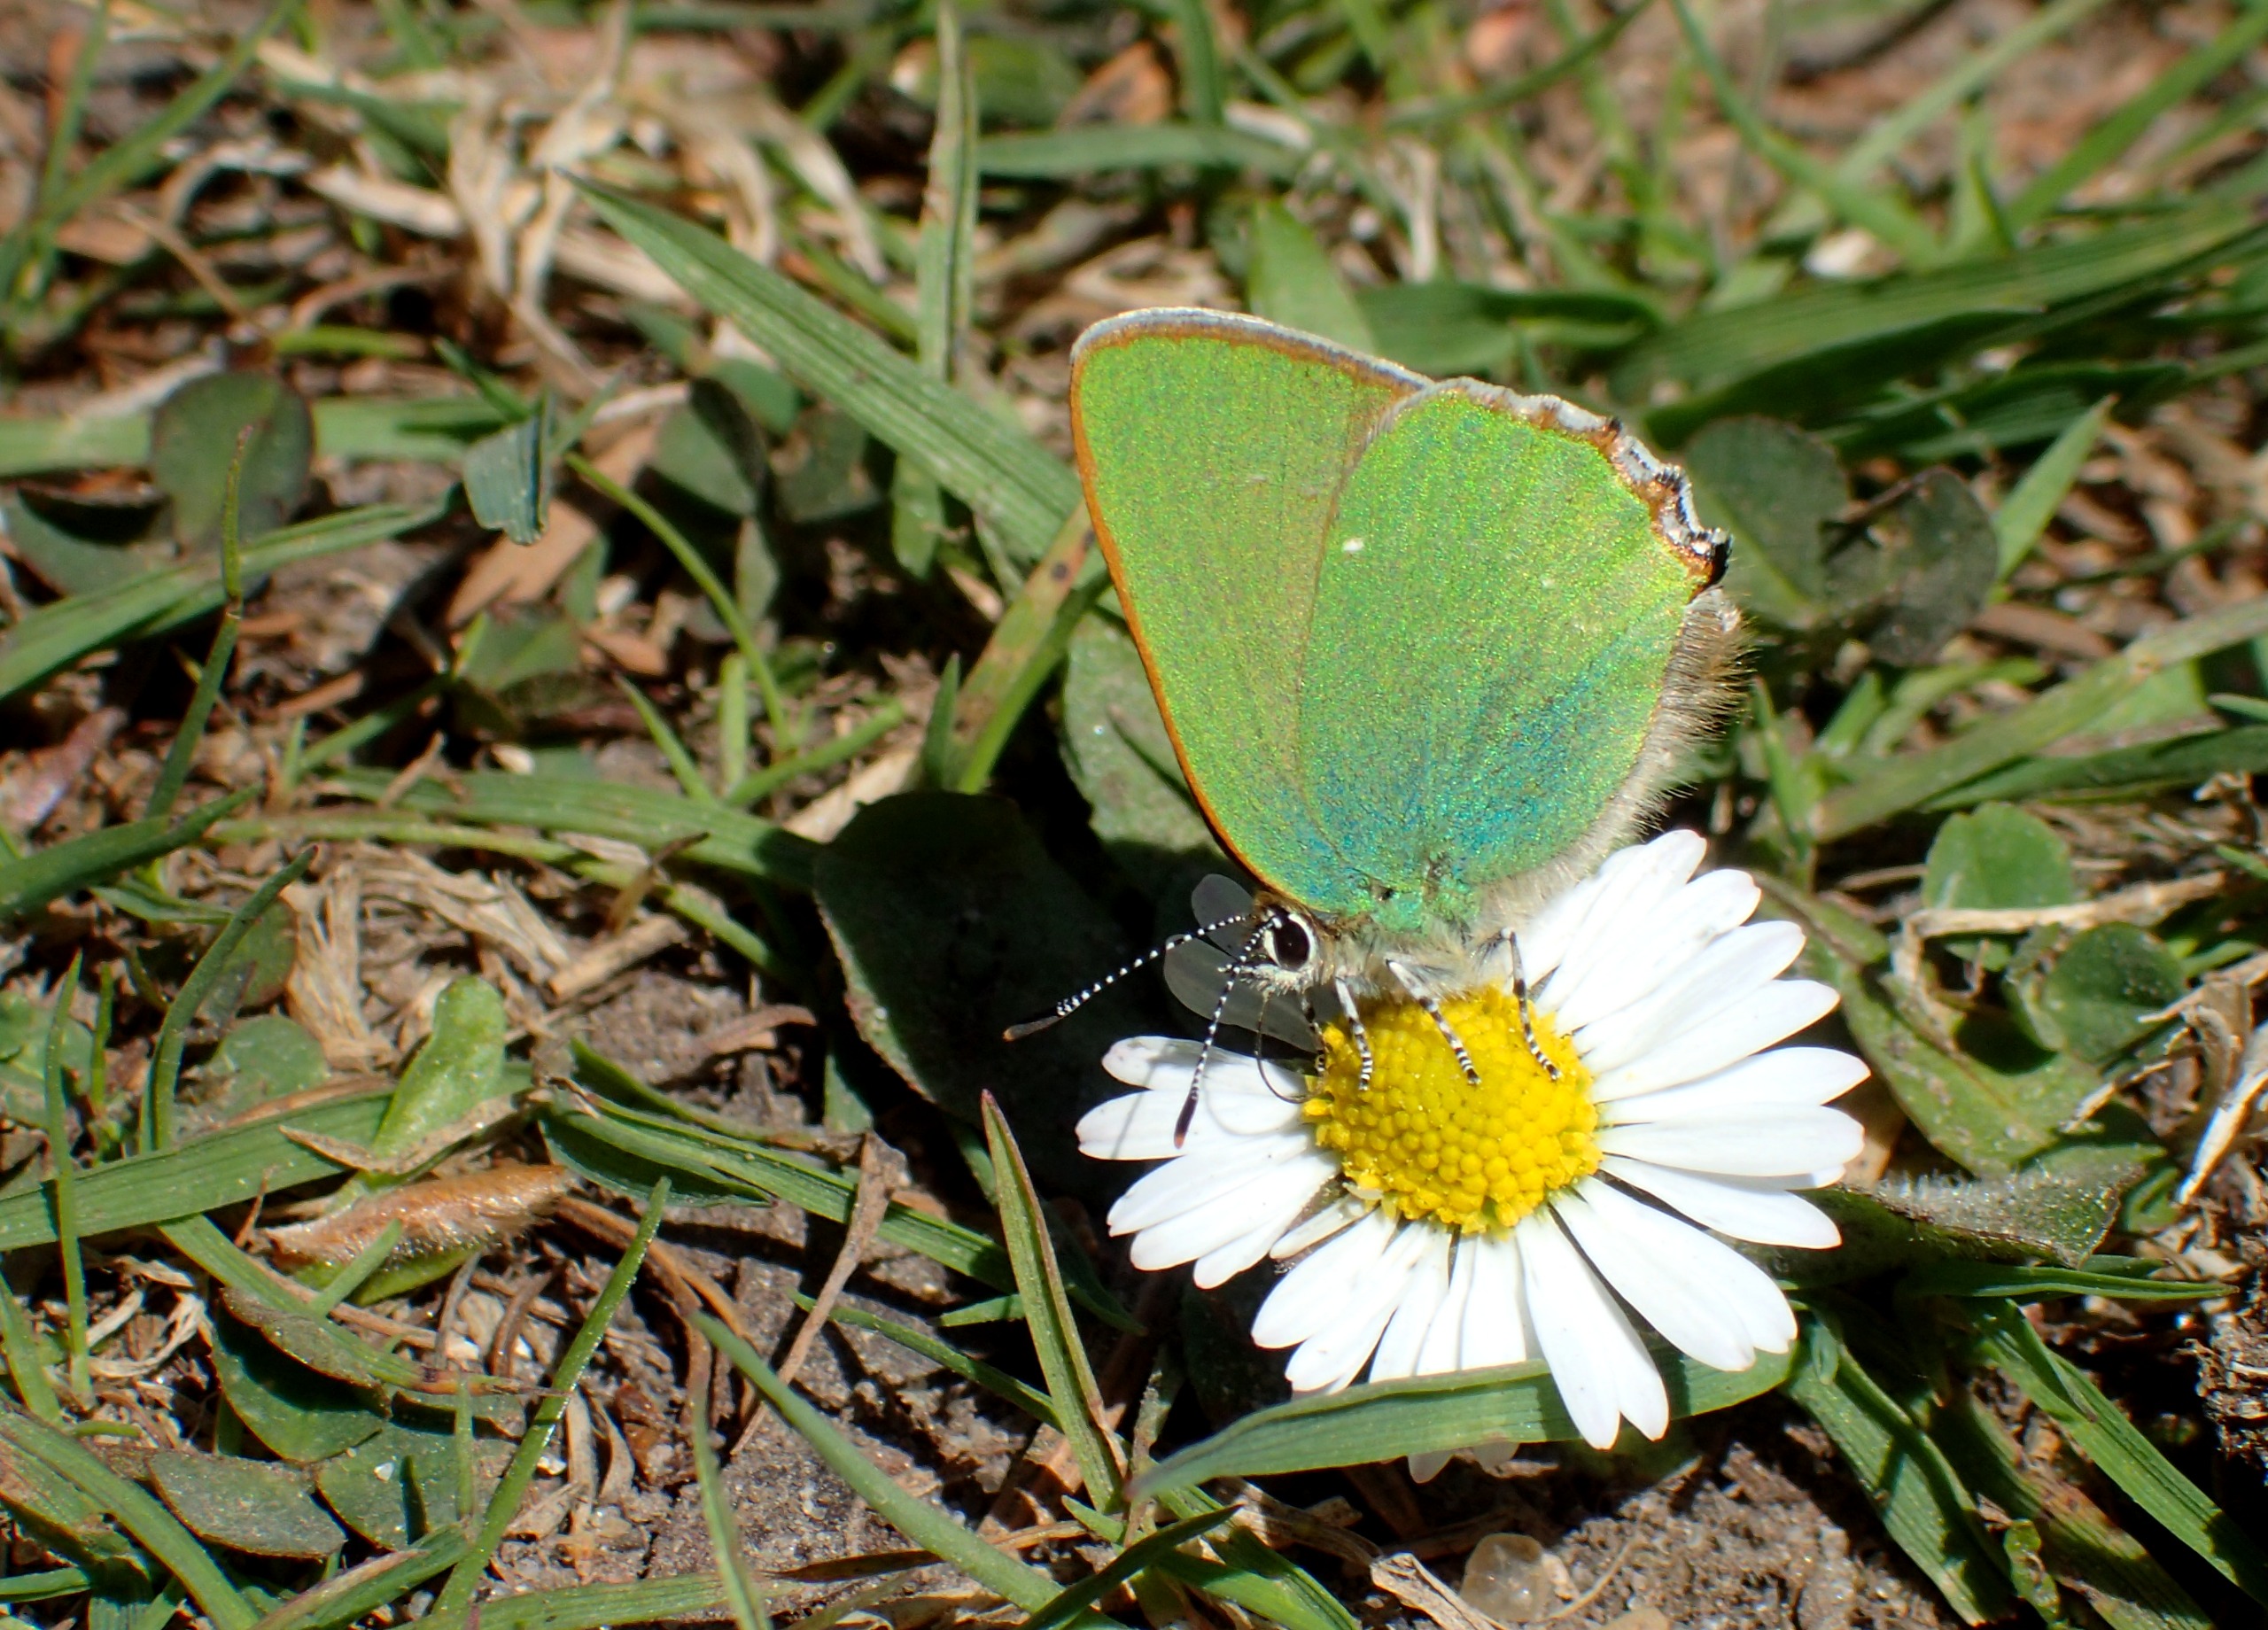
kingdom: Animalia
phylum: Arthropoda
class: Insecta
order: Lepidoptera
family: Lycaenidae
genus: Callophrys
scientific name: Callophrys rubi
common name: Grøn busksommerfugl
